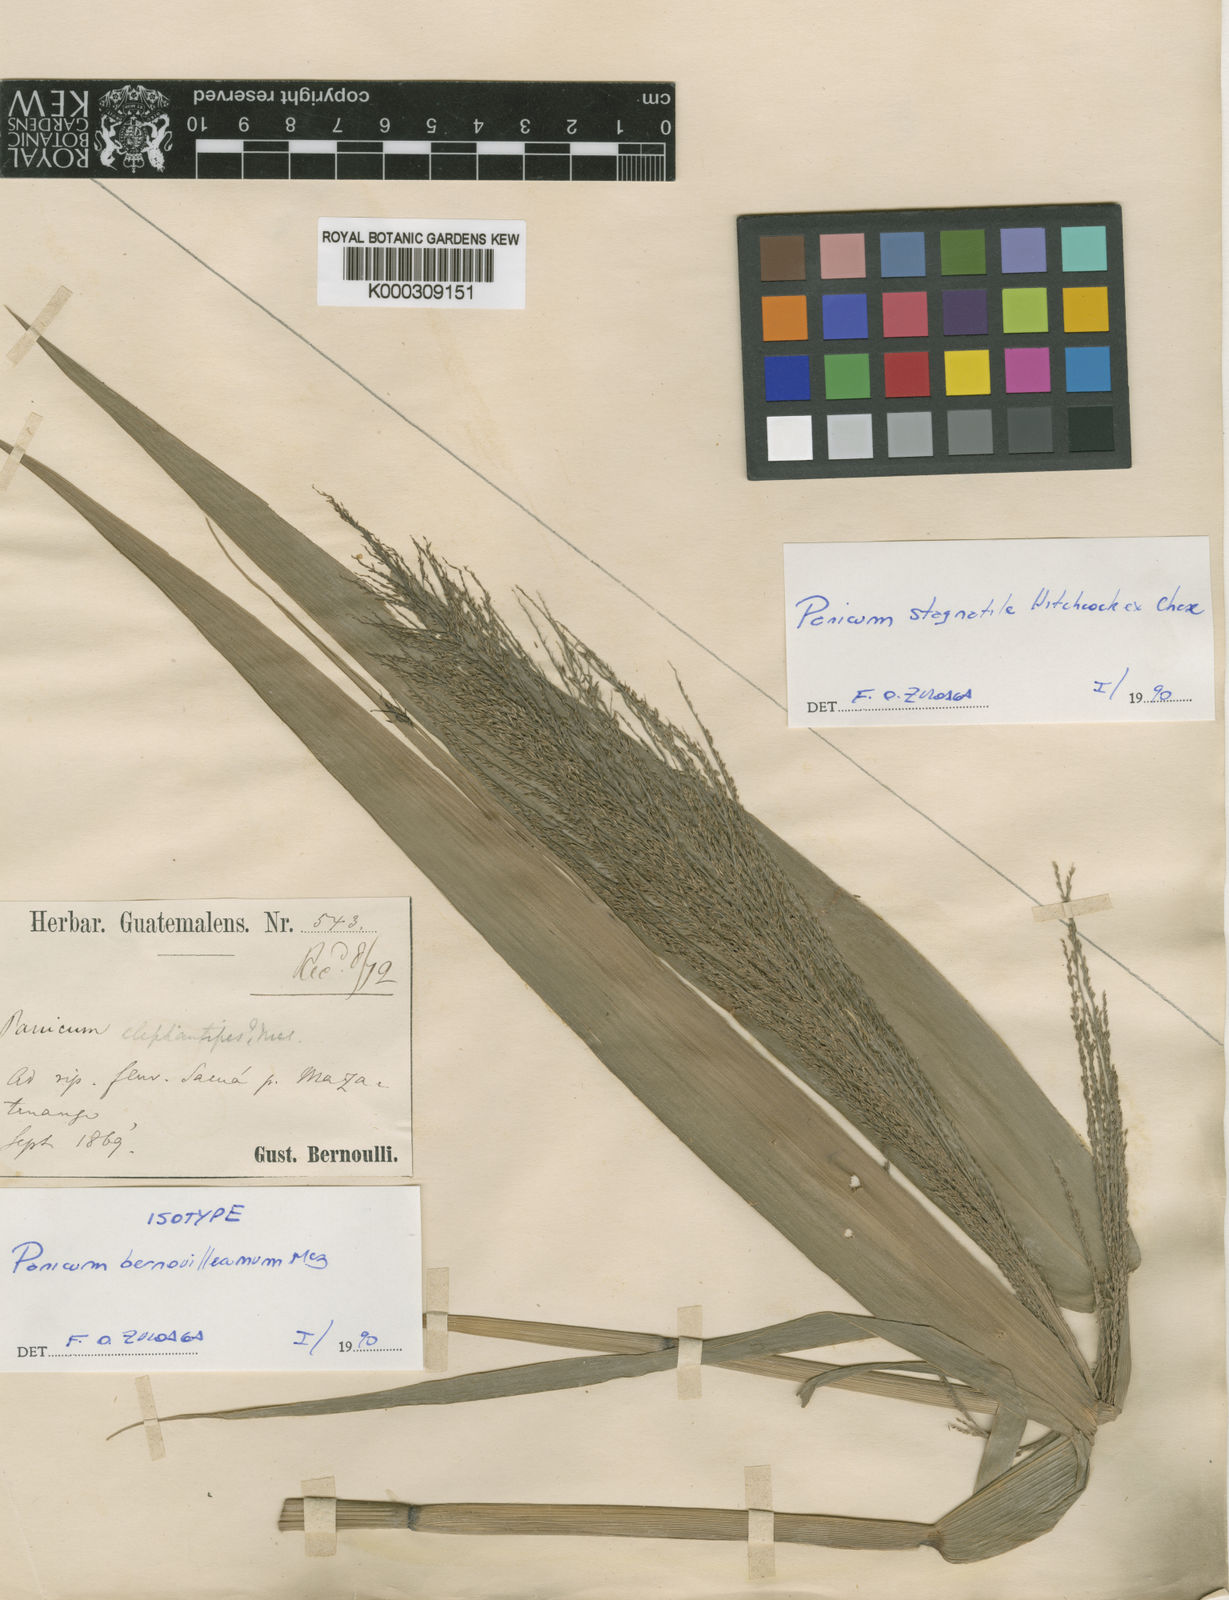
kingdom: Plantae
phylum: Tracheophyta
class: Liliopsida
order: Poales
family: Poaceae
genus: Hymenachne
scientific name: Hymenachne stagnatilis
